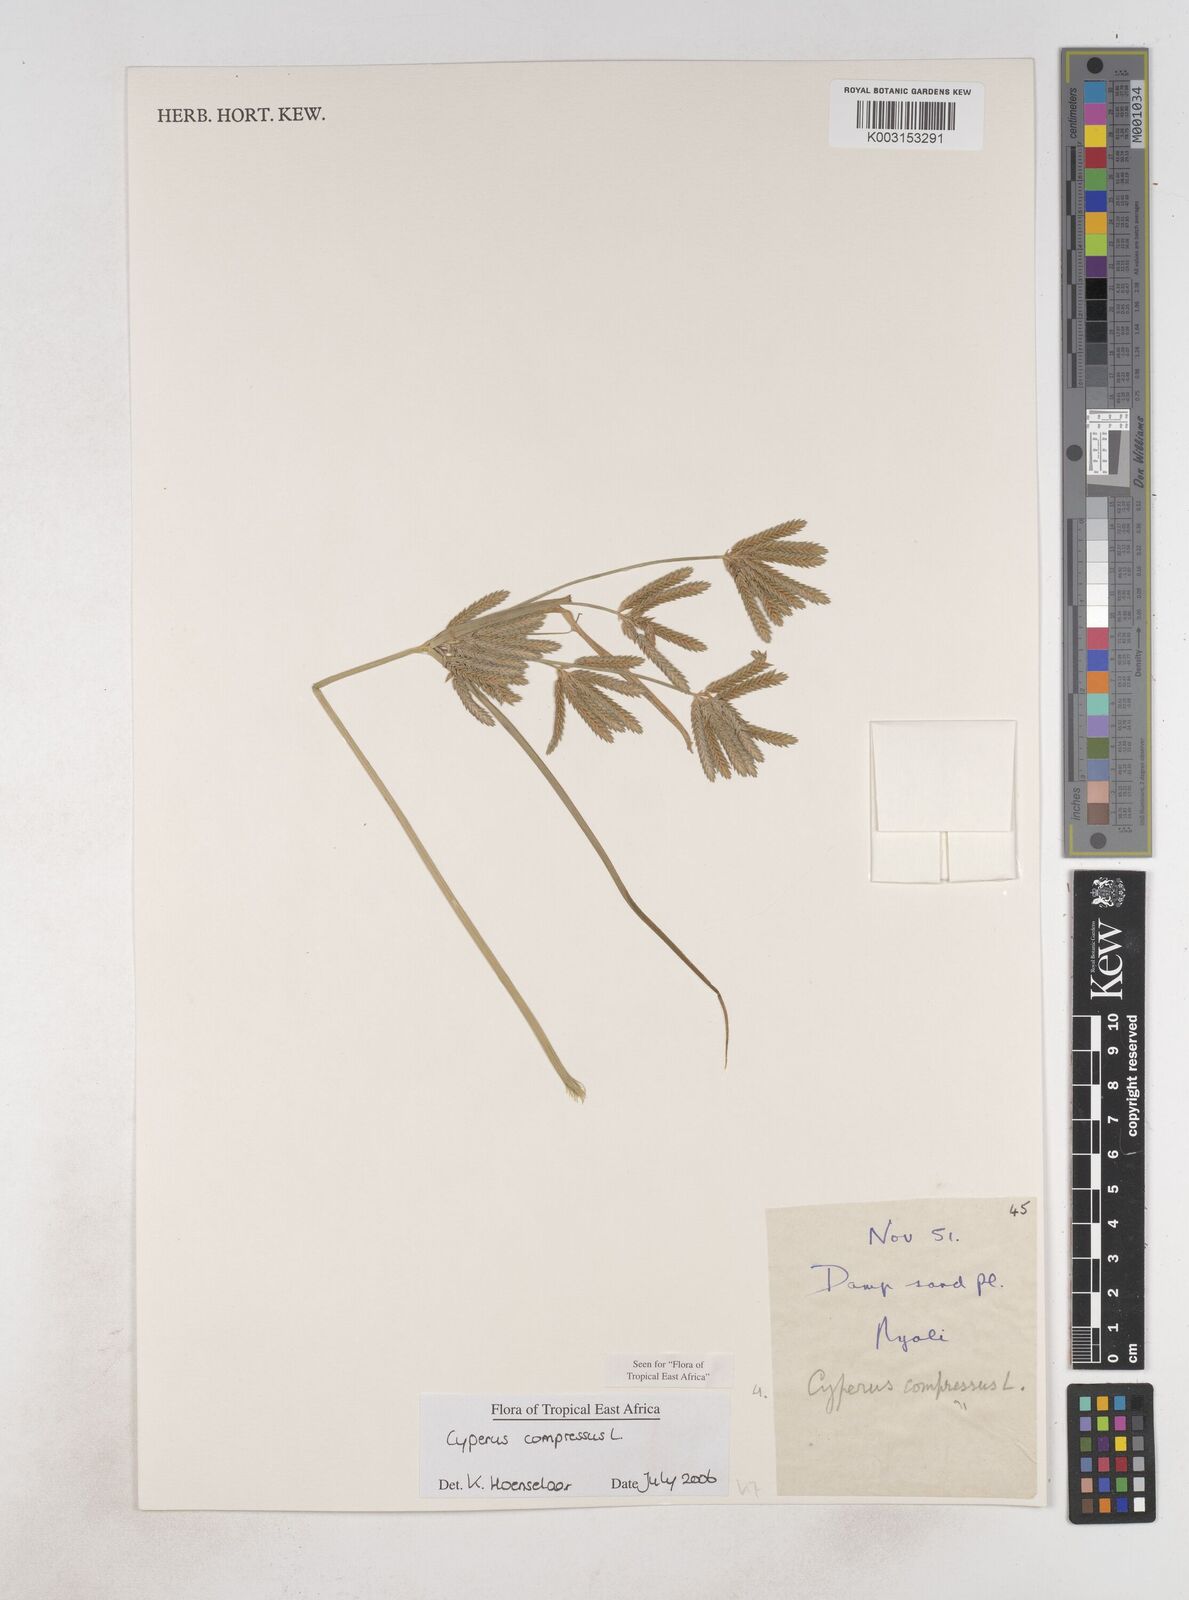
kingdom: Plantae
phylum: Tracheophyta
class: Liliopsida
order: Poales
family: Cyperaceae
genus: Cyperus
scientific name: Cyperus compressus
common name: Poorland flatsedge
